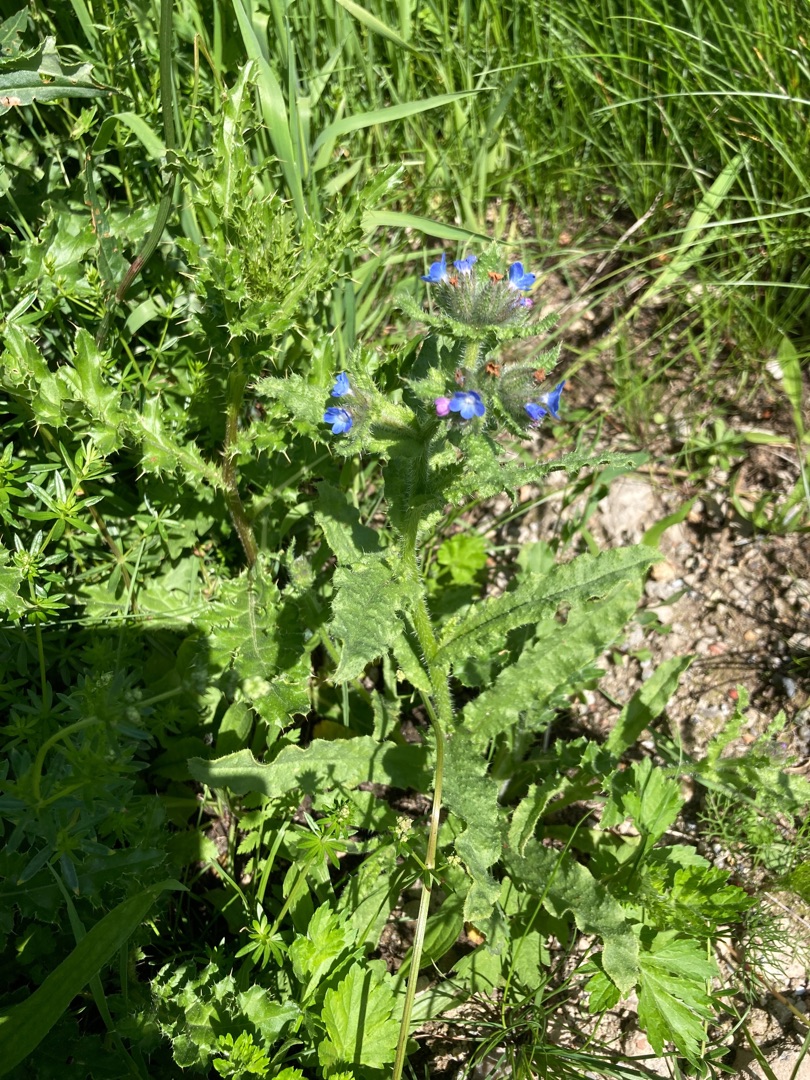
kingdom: Plantae
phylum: Tracheophyta
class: Magnoliopsida
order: Boraginales
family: Boraginaceae
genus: Lycopsis
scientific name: Lycopsis arvensis
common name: Krumhals
